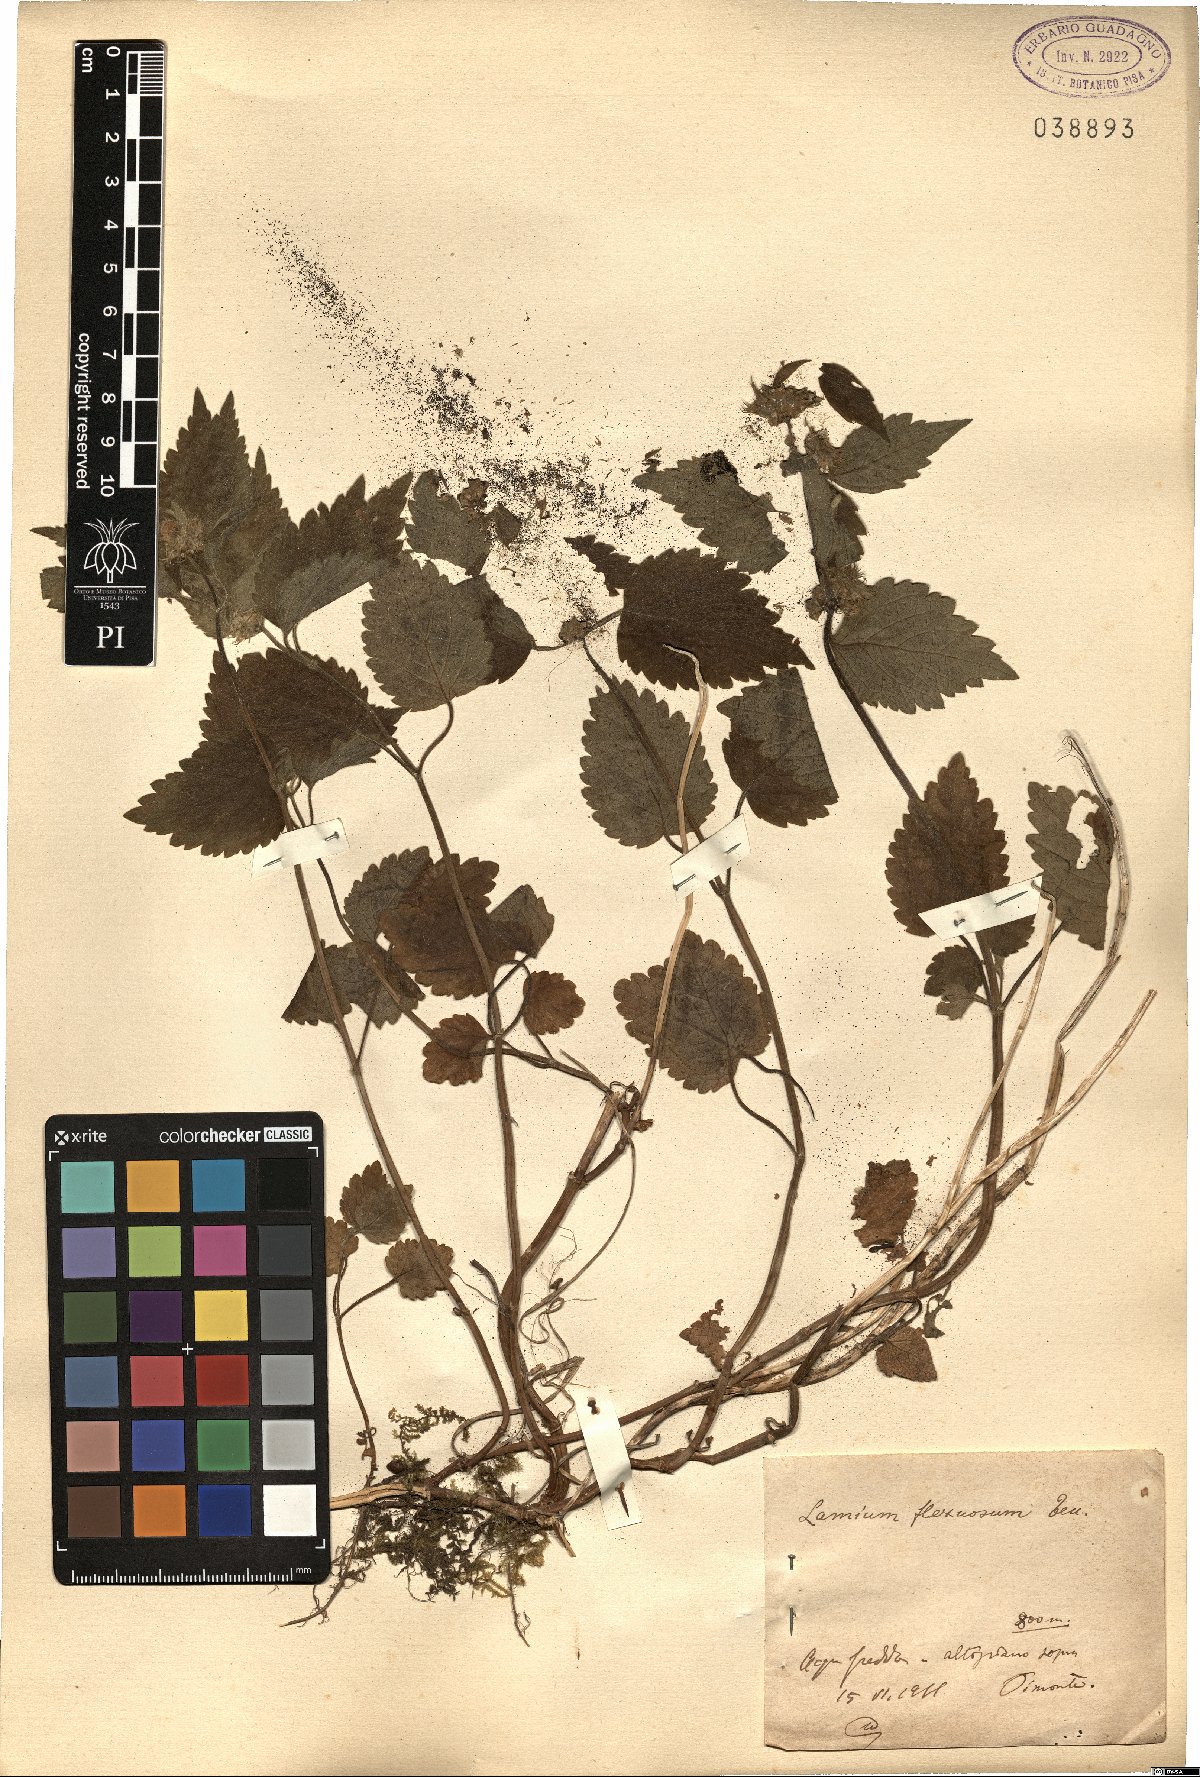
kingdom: Plantae
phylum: Tracheophyta
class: Magnoliopsida
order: Lamiales
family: Lamiaceae
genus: Lamium
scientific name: Lamium flexuosum
